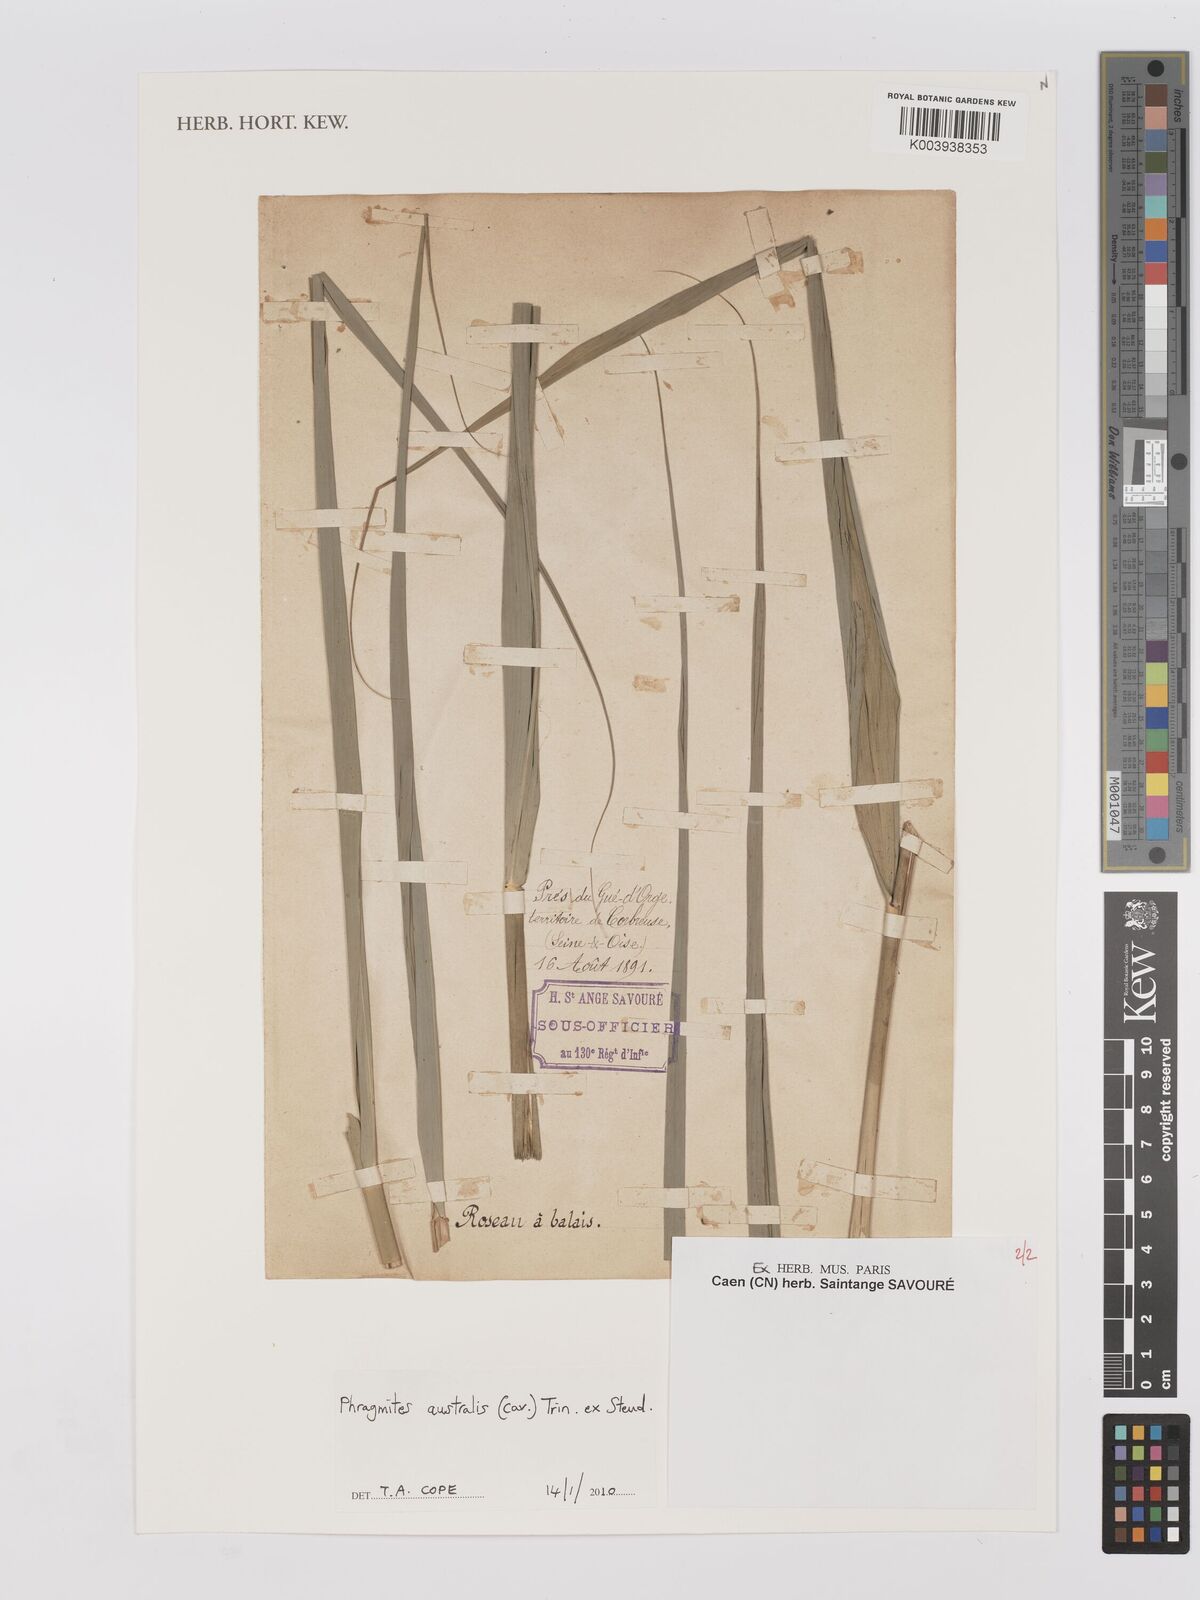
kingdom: Plantae
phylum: Tracheophyta
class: Liliopsida
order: Poales
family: Poaceae
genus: Phragmites
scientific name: Phragmites australis
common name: Common reed
